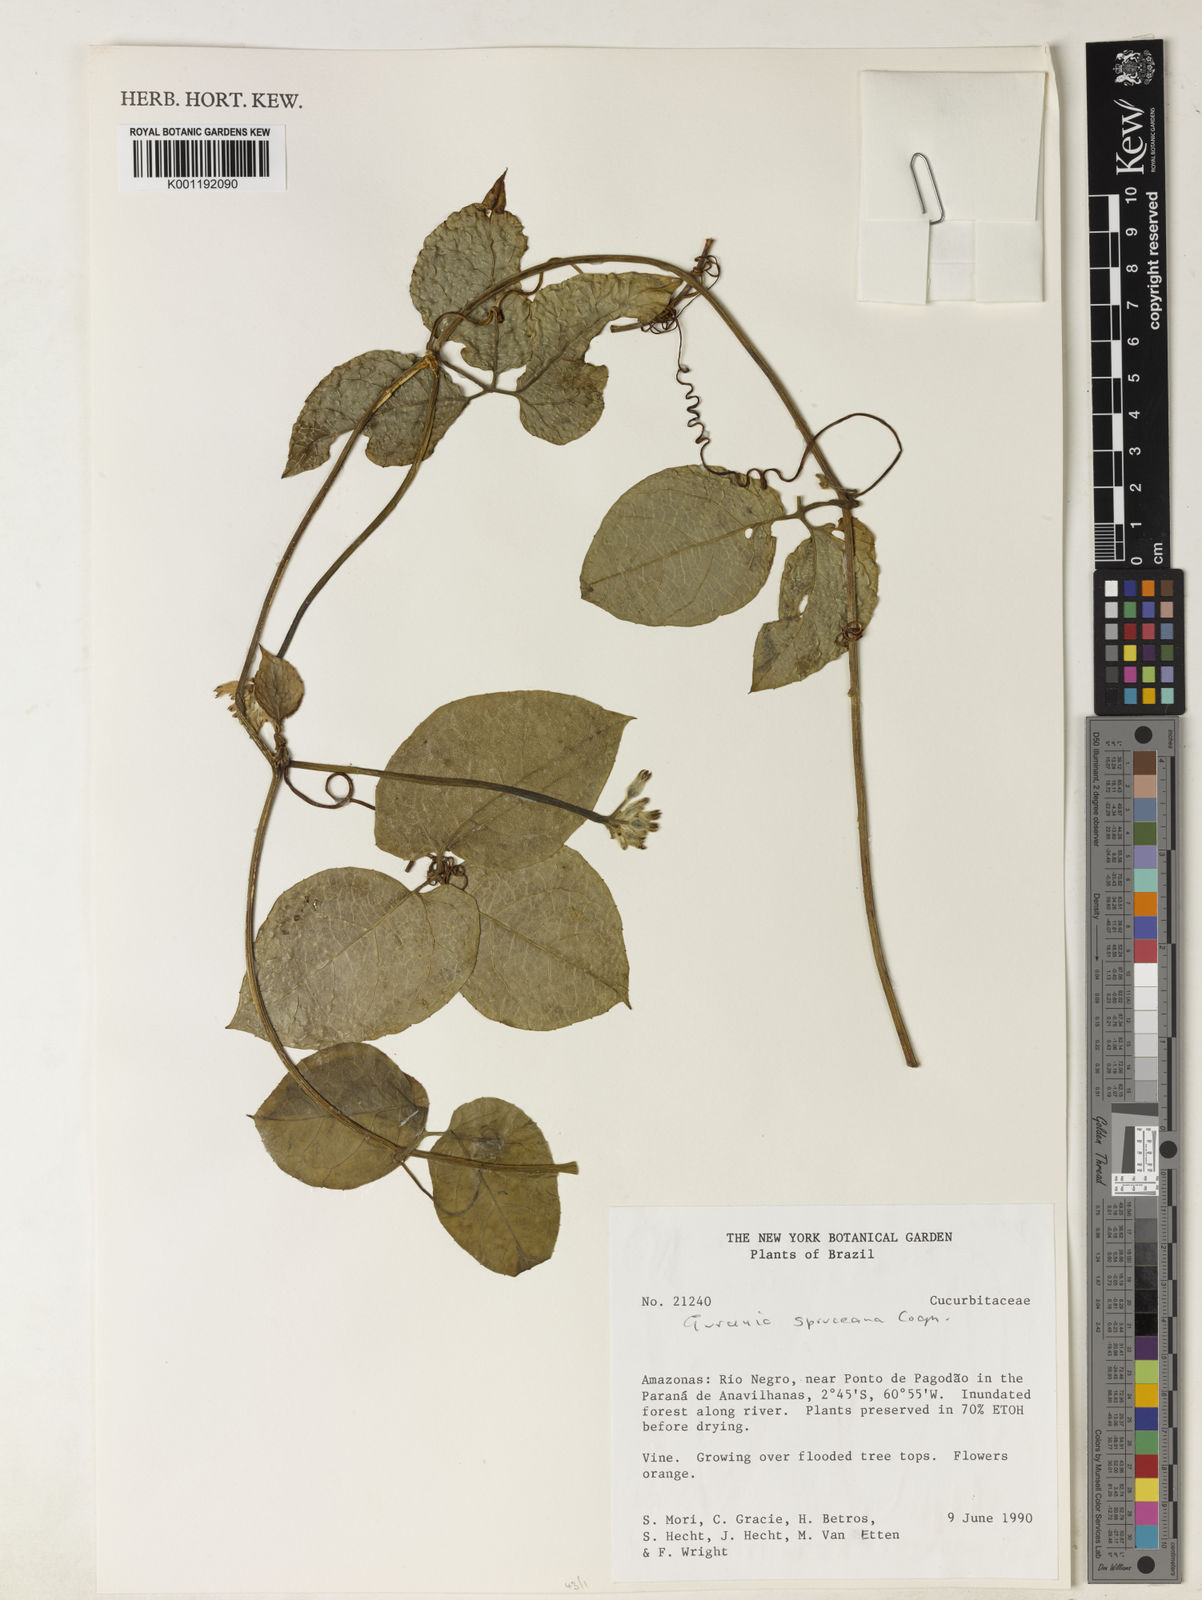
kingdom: Plantae
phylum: Tracheophyta
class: Magnoliopsida
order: Cucurbitales
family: Cucurbitaceae
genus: Gurania
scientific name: Gurania spruceana
